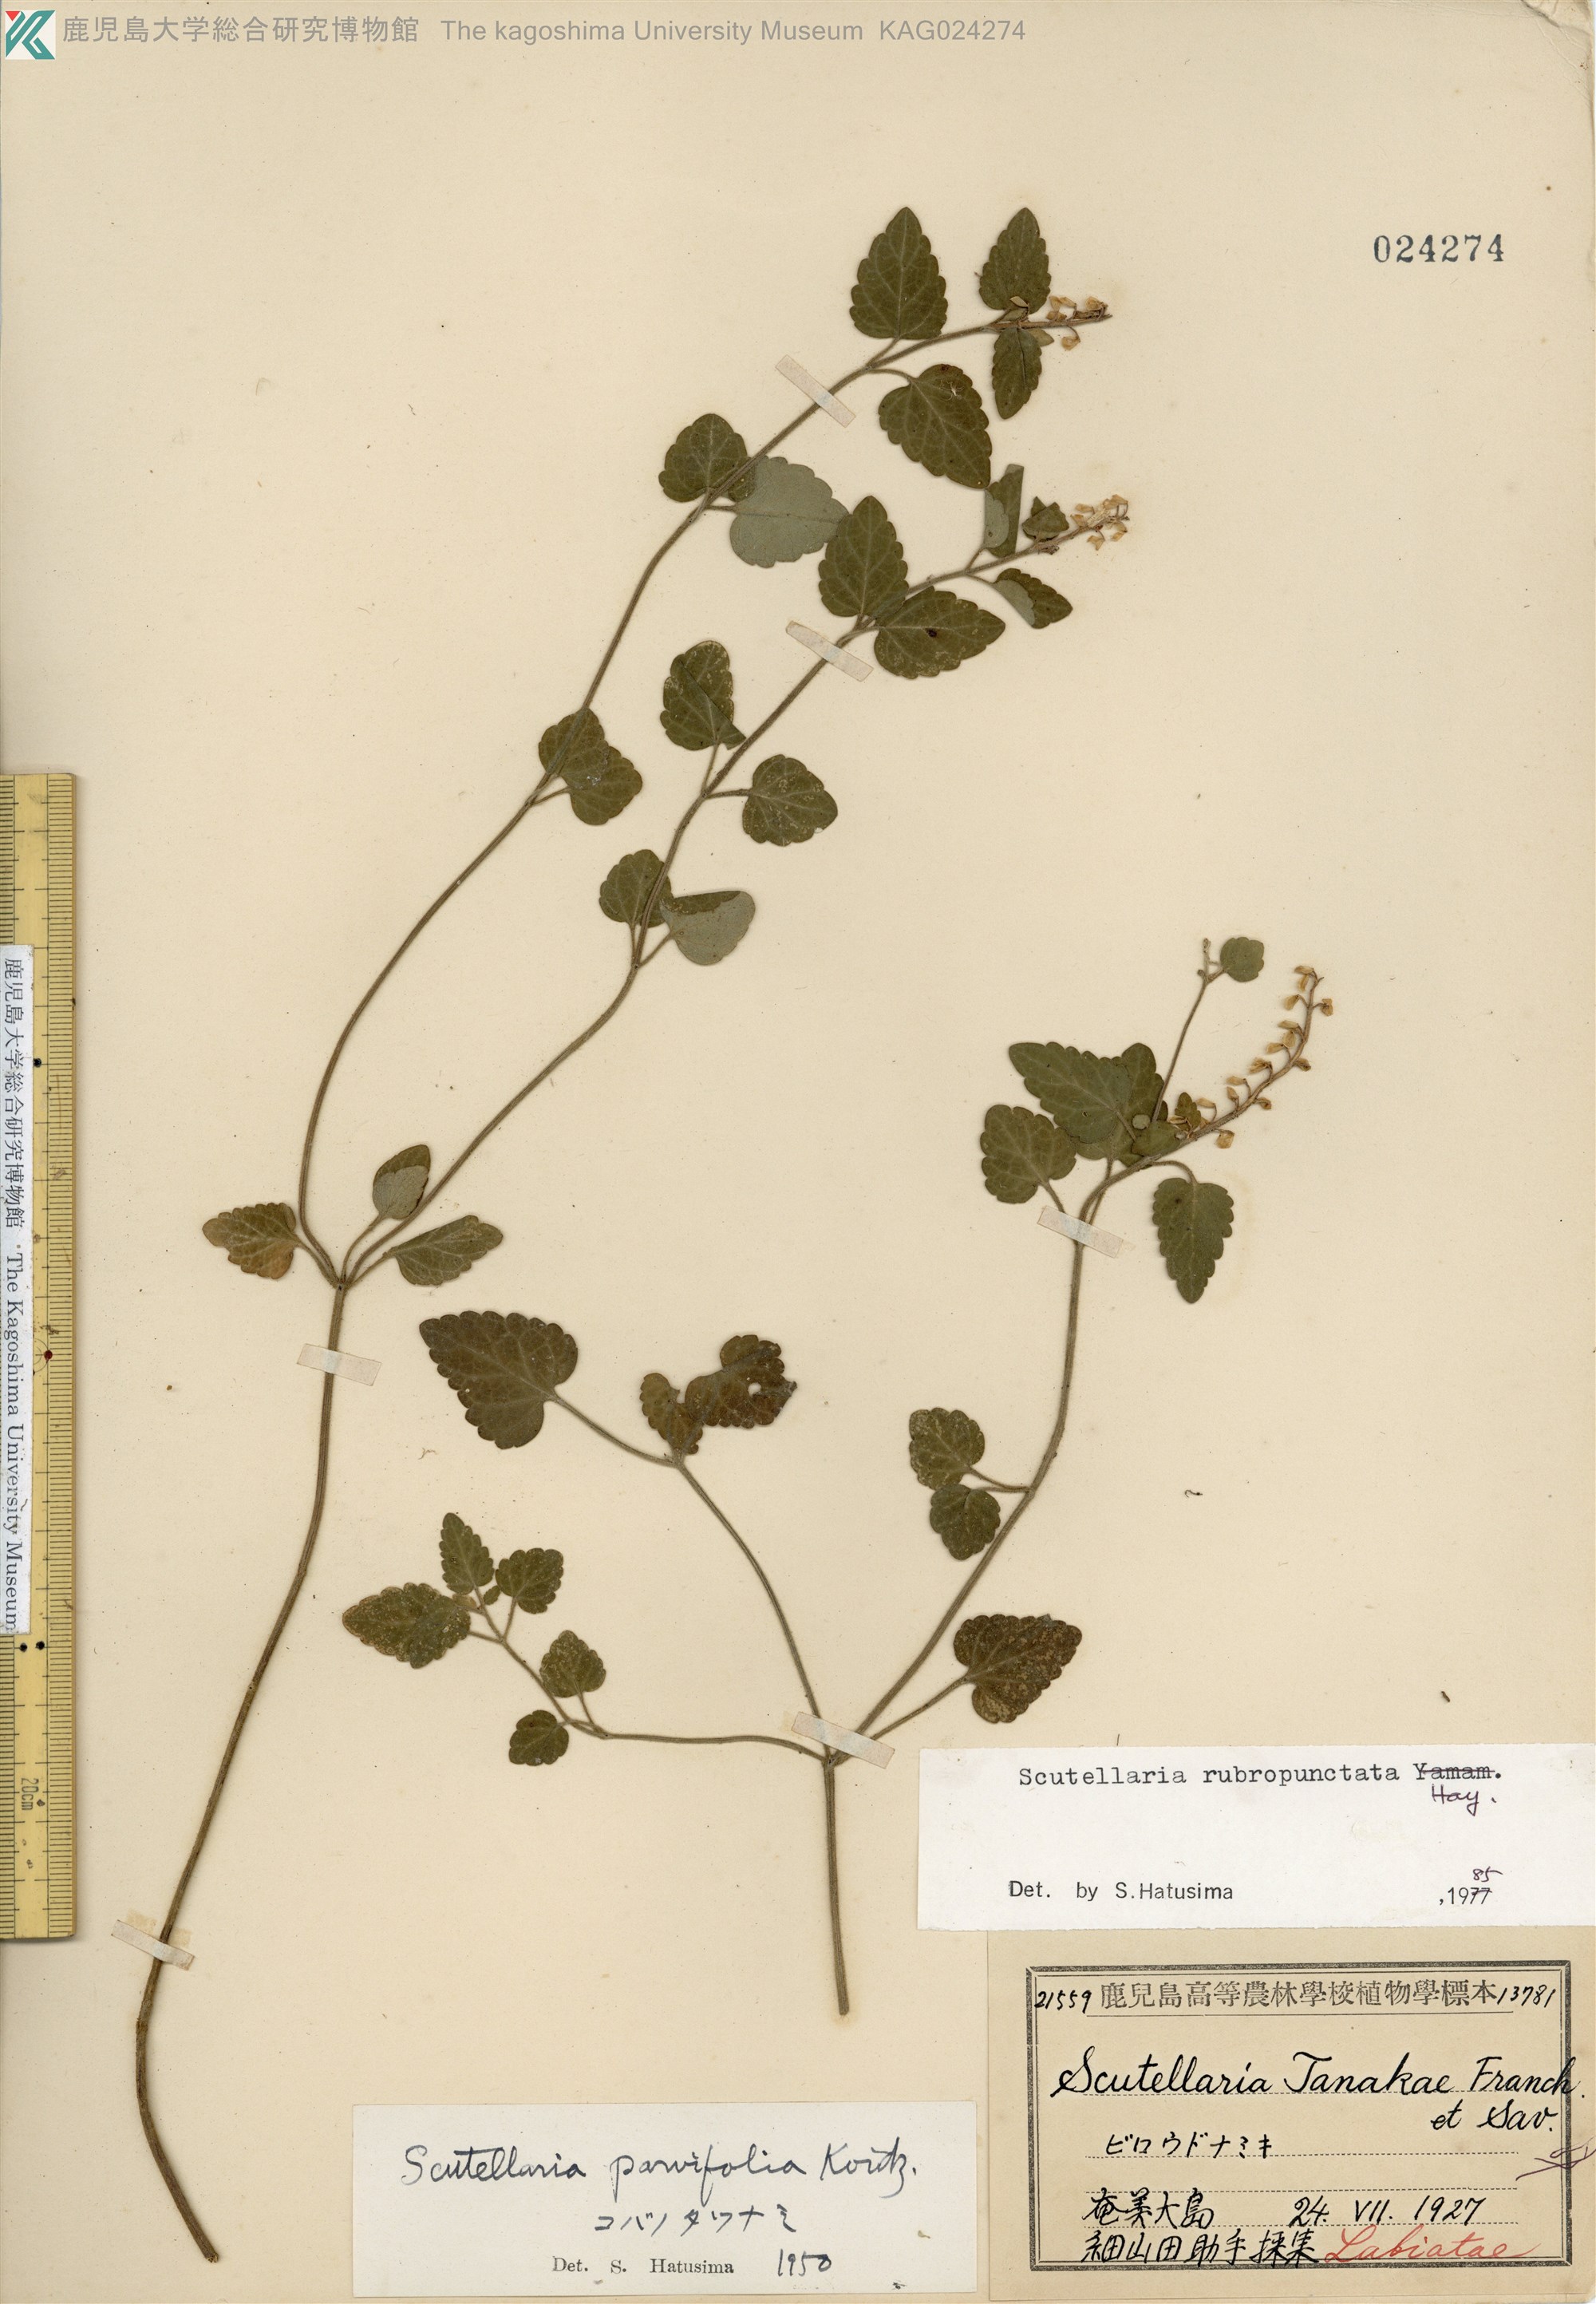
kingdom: Plantae
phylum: Tracheophyta
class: Magnoliopsida
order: Lamiales
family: Lamiaceae
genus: Scutellaria
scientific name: Scutellaria rubropunctata
